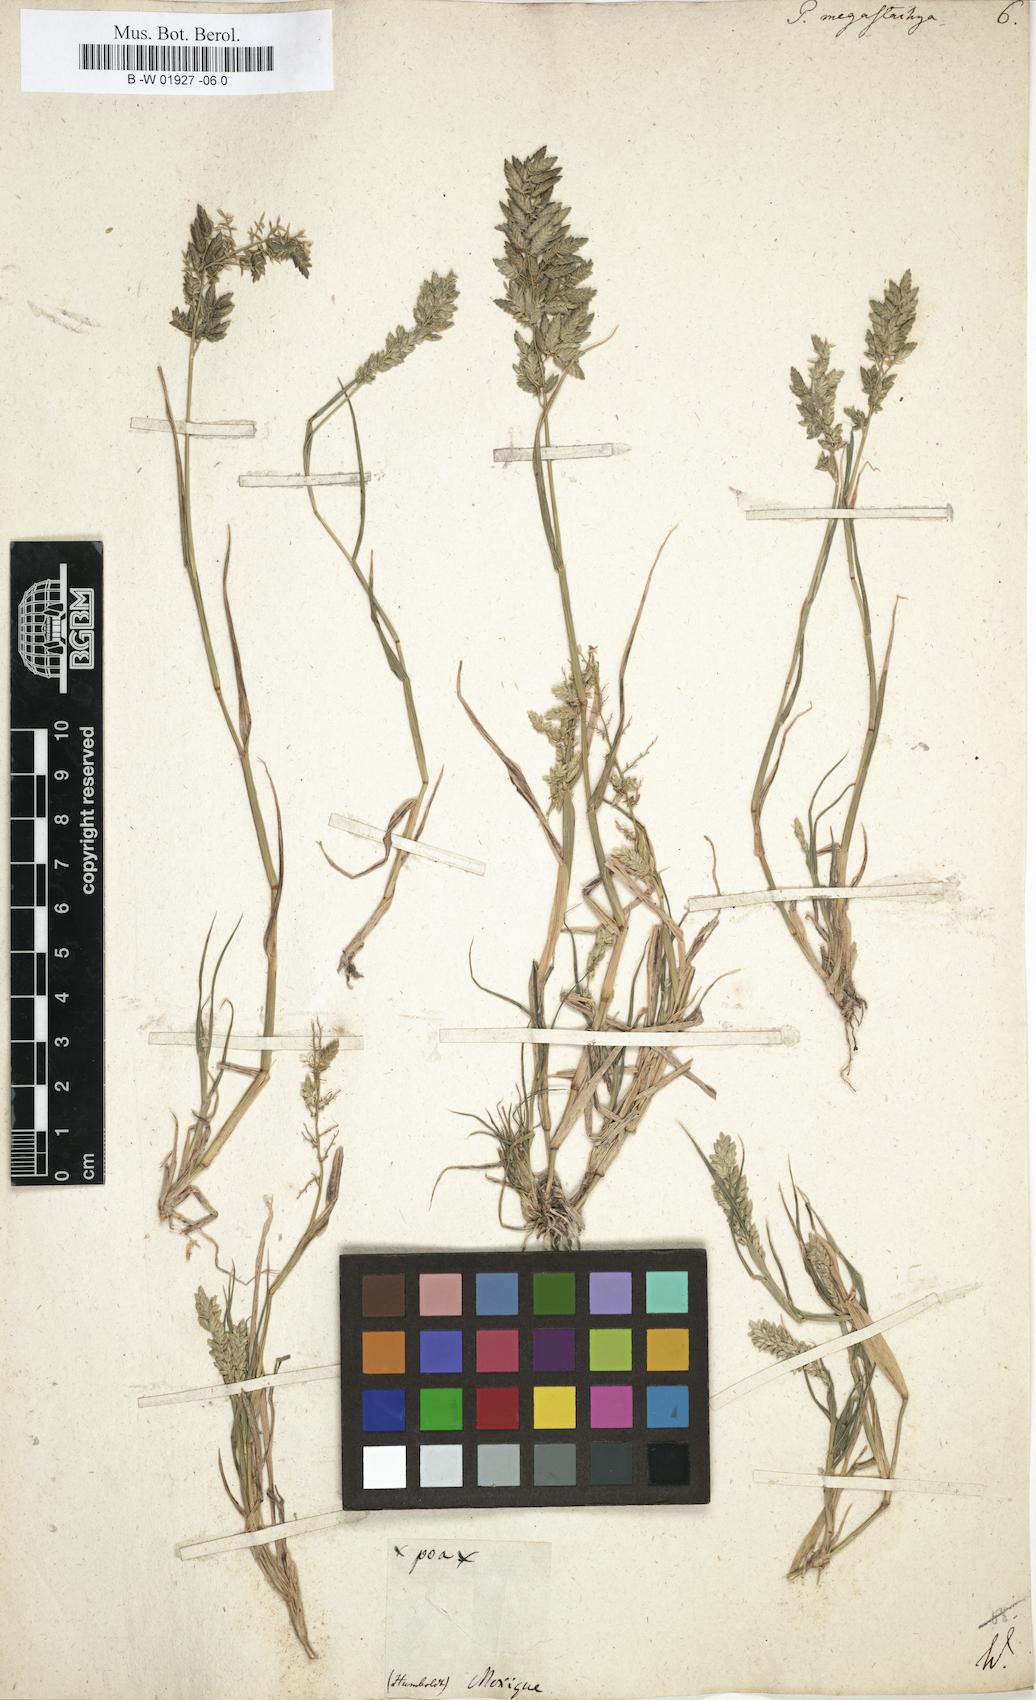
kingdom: Plantae
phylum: Tracheophyta
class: Liliopsida
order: Poales
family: Poaceae
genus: Eragrostis
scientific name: Eragrostis cilianensis
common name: Stinkgrass
